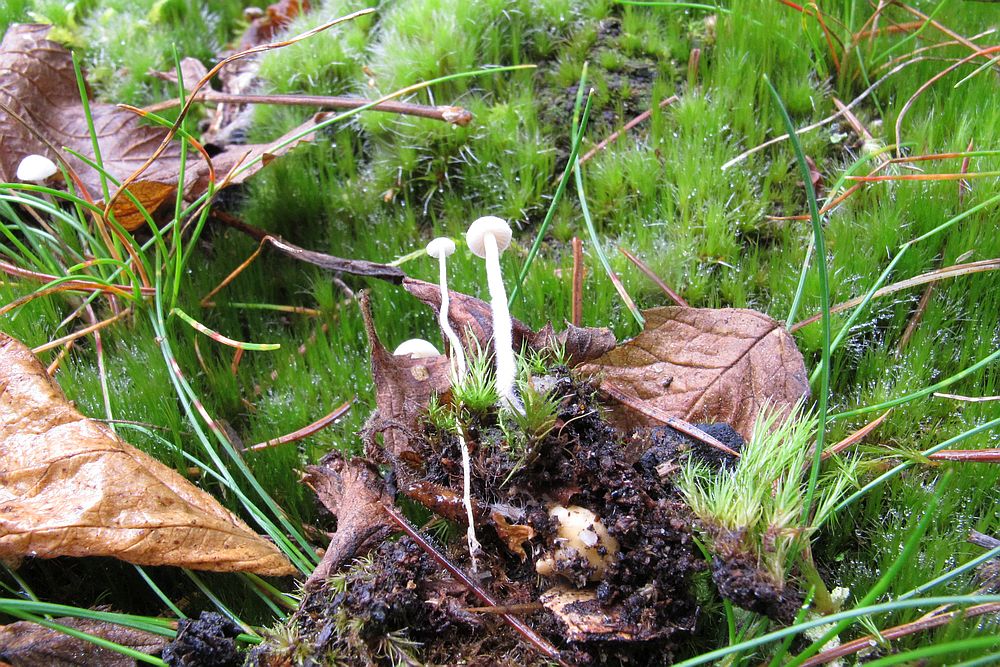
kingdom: Fungi
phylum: Basidiomycota
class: Agaricomycetes
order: Agaricales
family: Tricholomataceae
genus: Collybia
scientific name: Collybia cookei
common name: gulknoldet lighat
